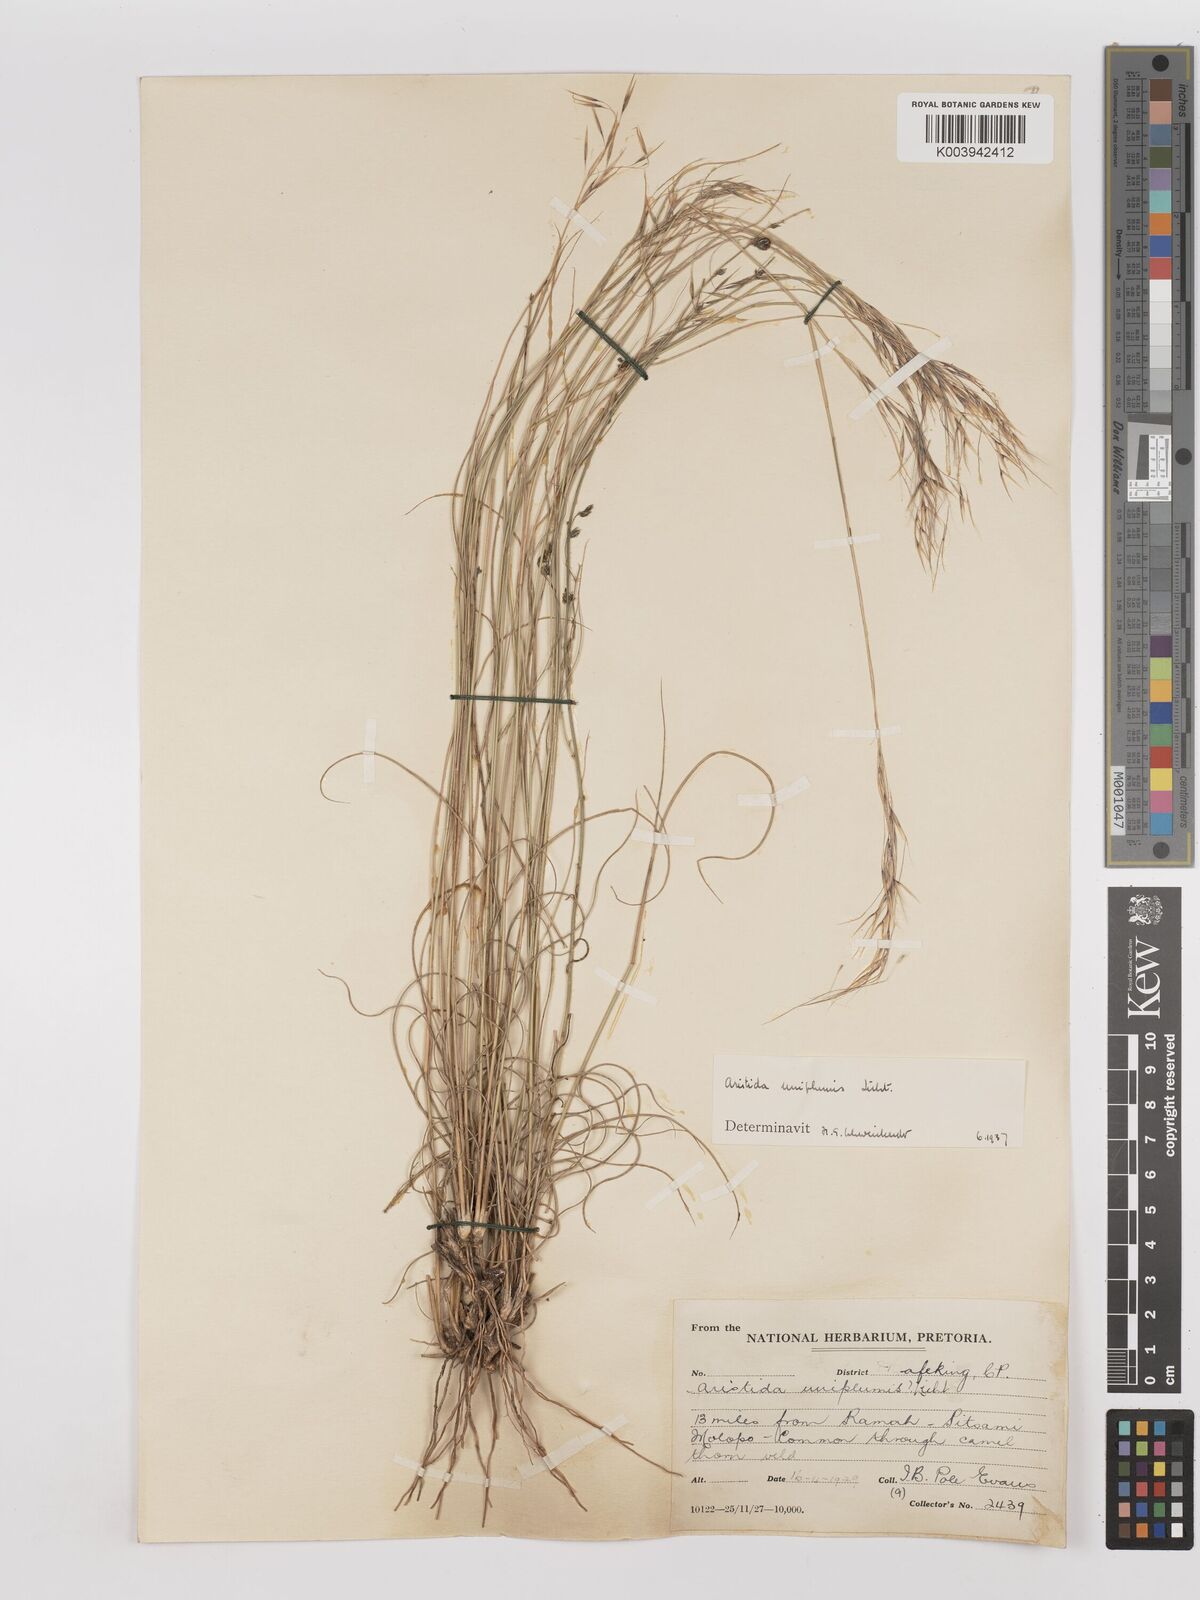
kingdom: Plantae
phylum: Tracheophyta
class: Liliopsida
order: Poales
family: Poaceae
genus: Stipagrostis
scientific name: Stipagrostis uniplumis
